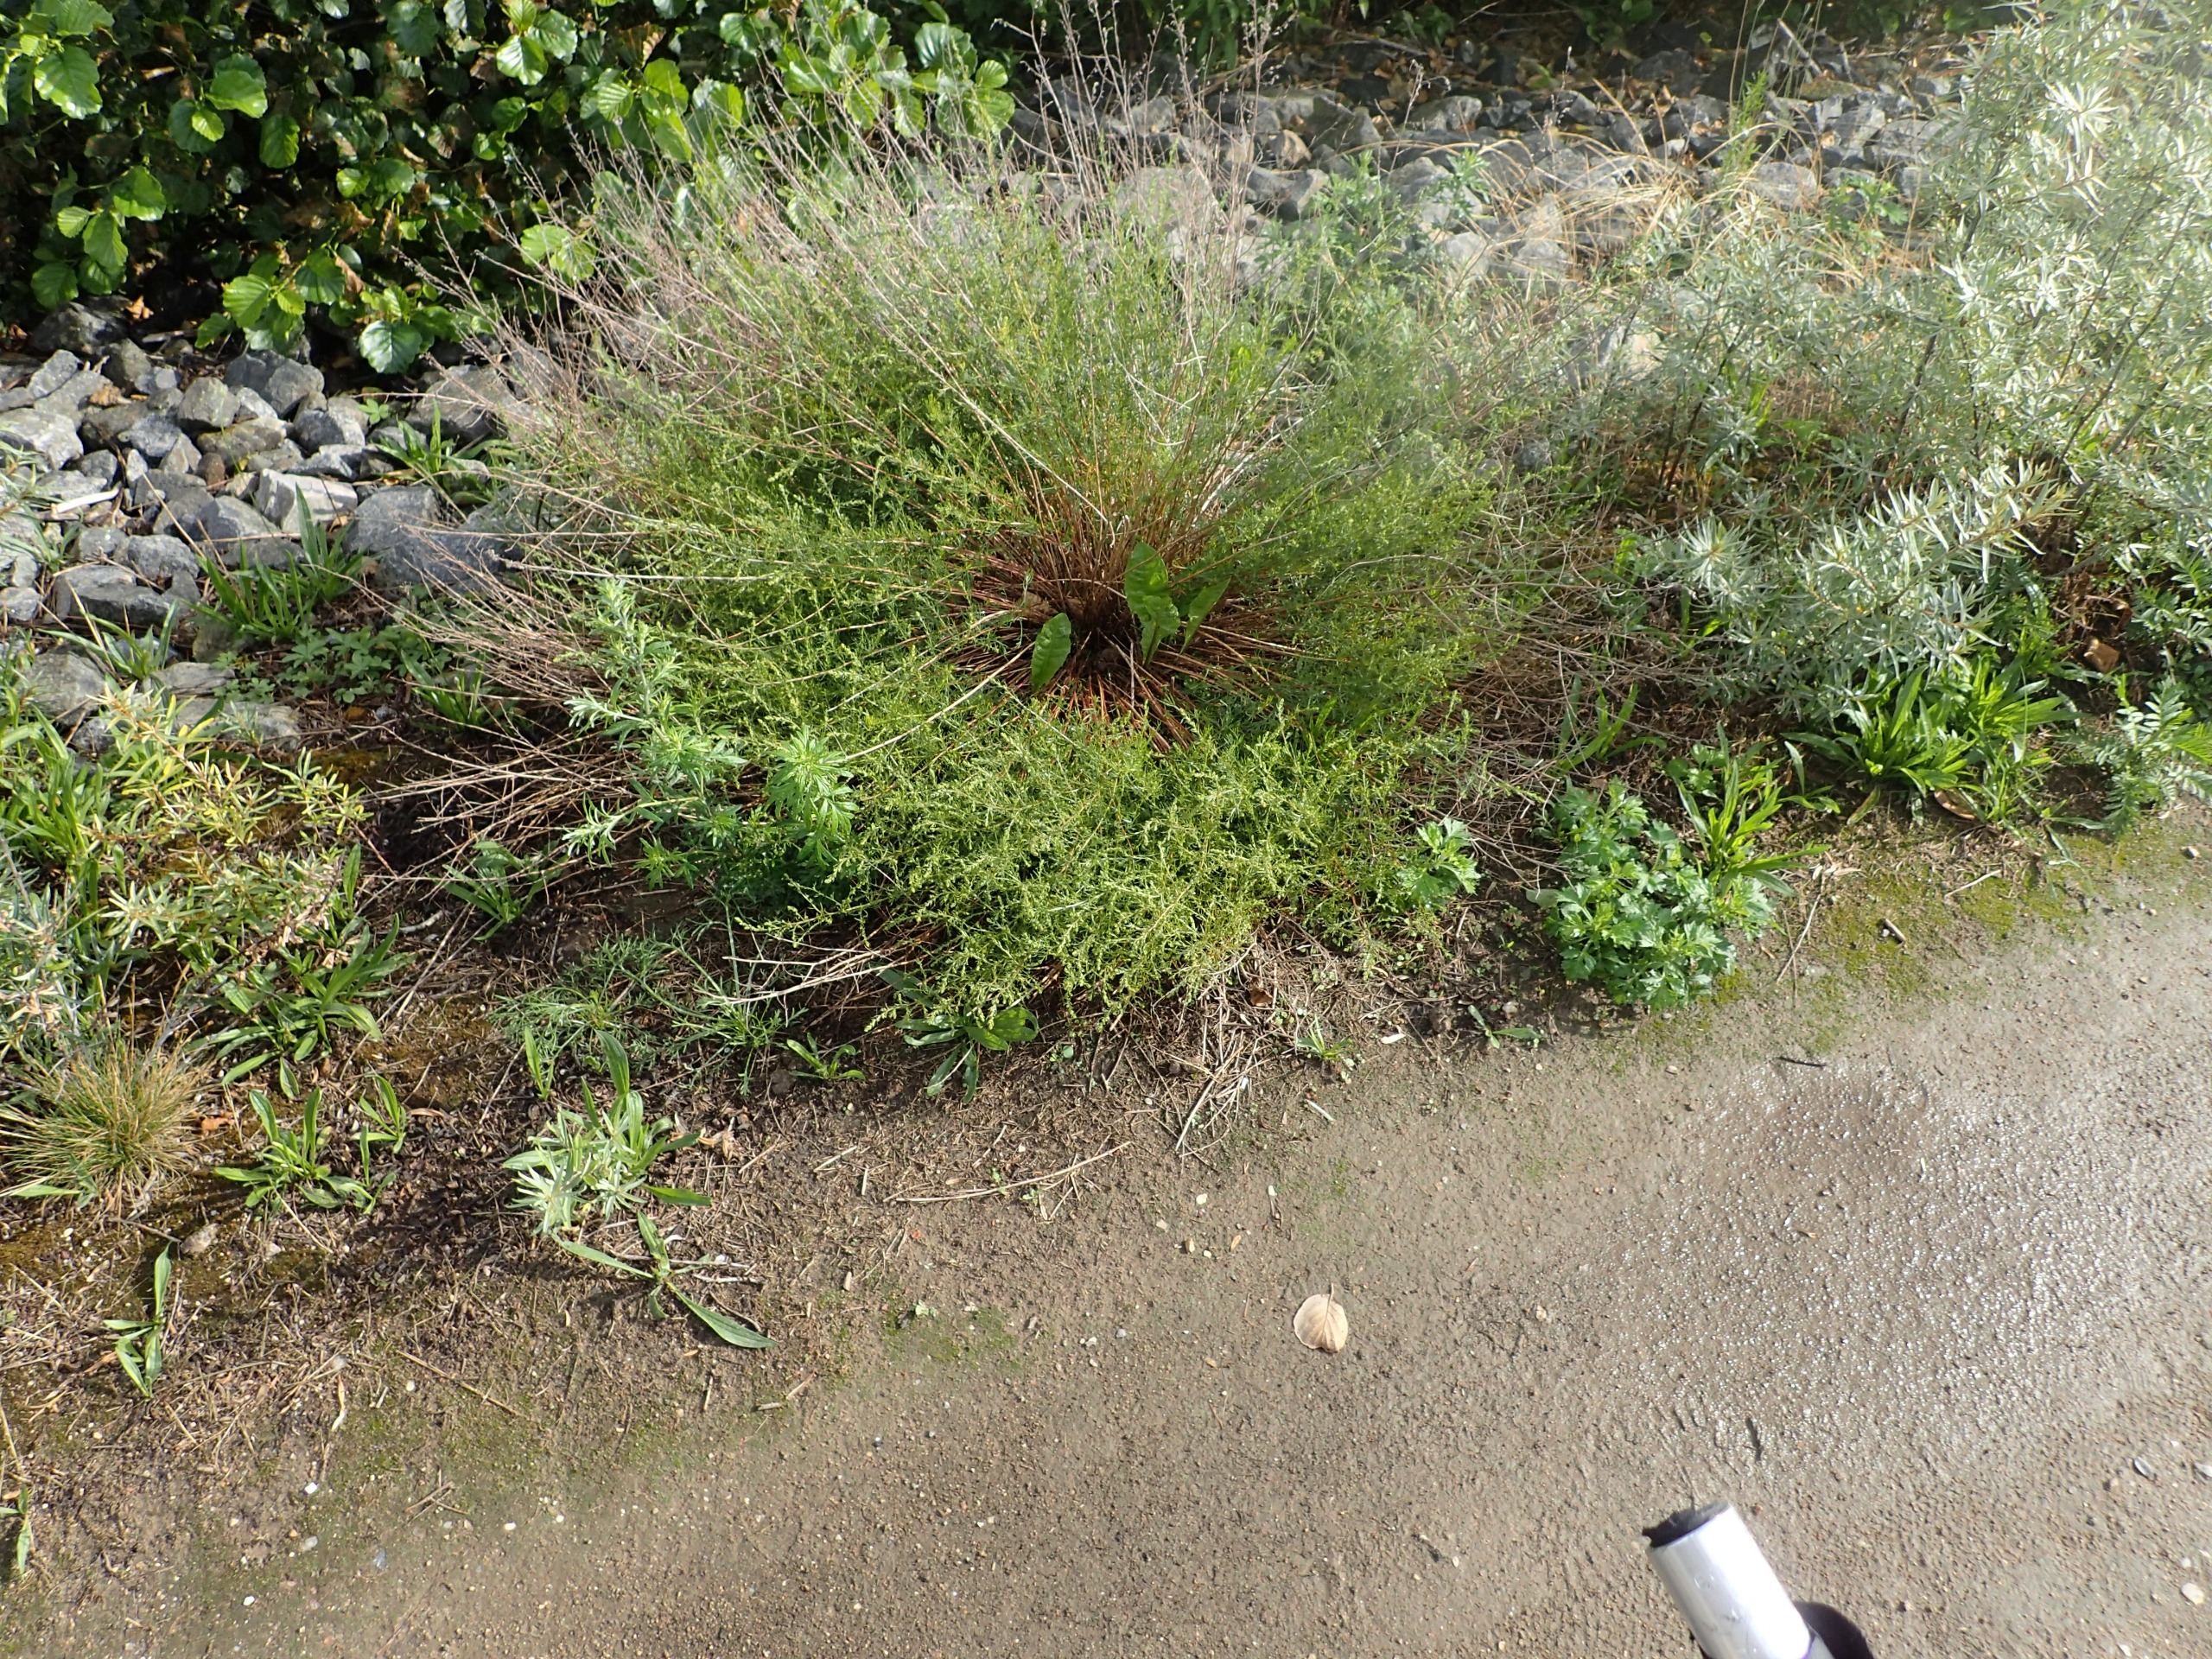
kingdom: Plantae
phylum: Tracheophyta
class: Magnoliopsida
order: Asterales
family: Asteraceae
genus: Artemisia
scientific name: Artemisia campestris
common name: Mark-bynke
